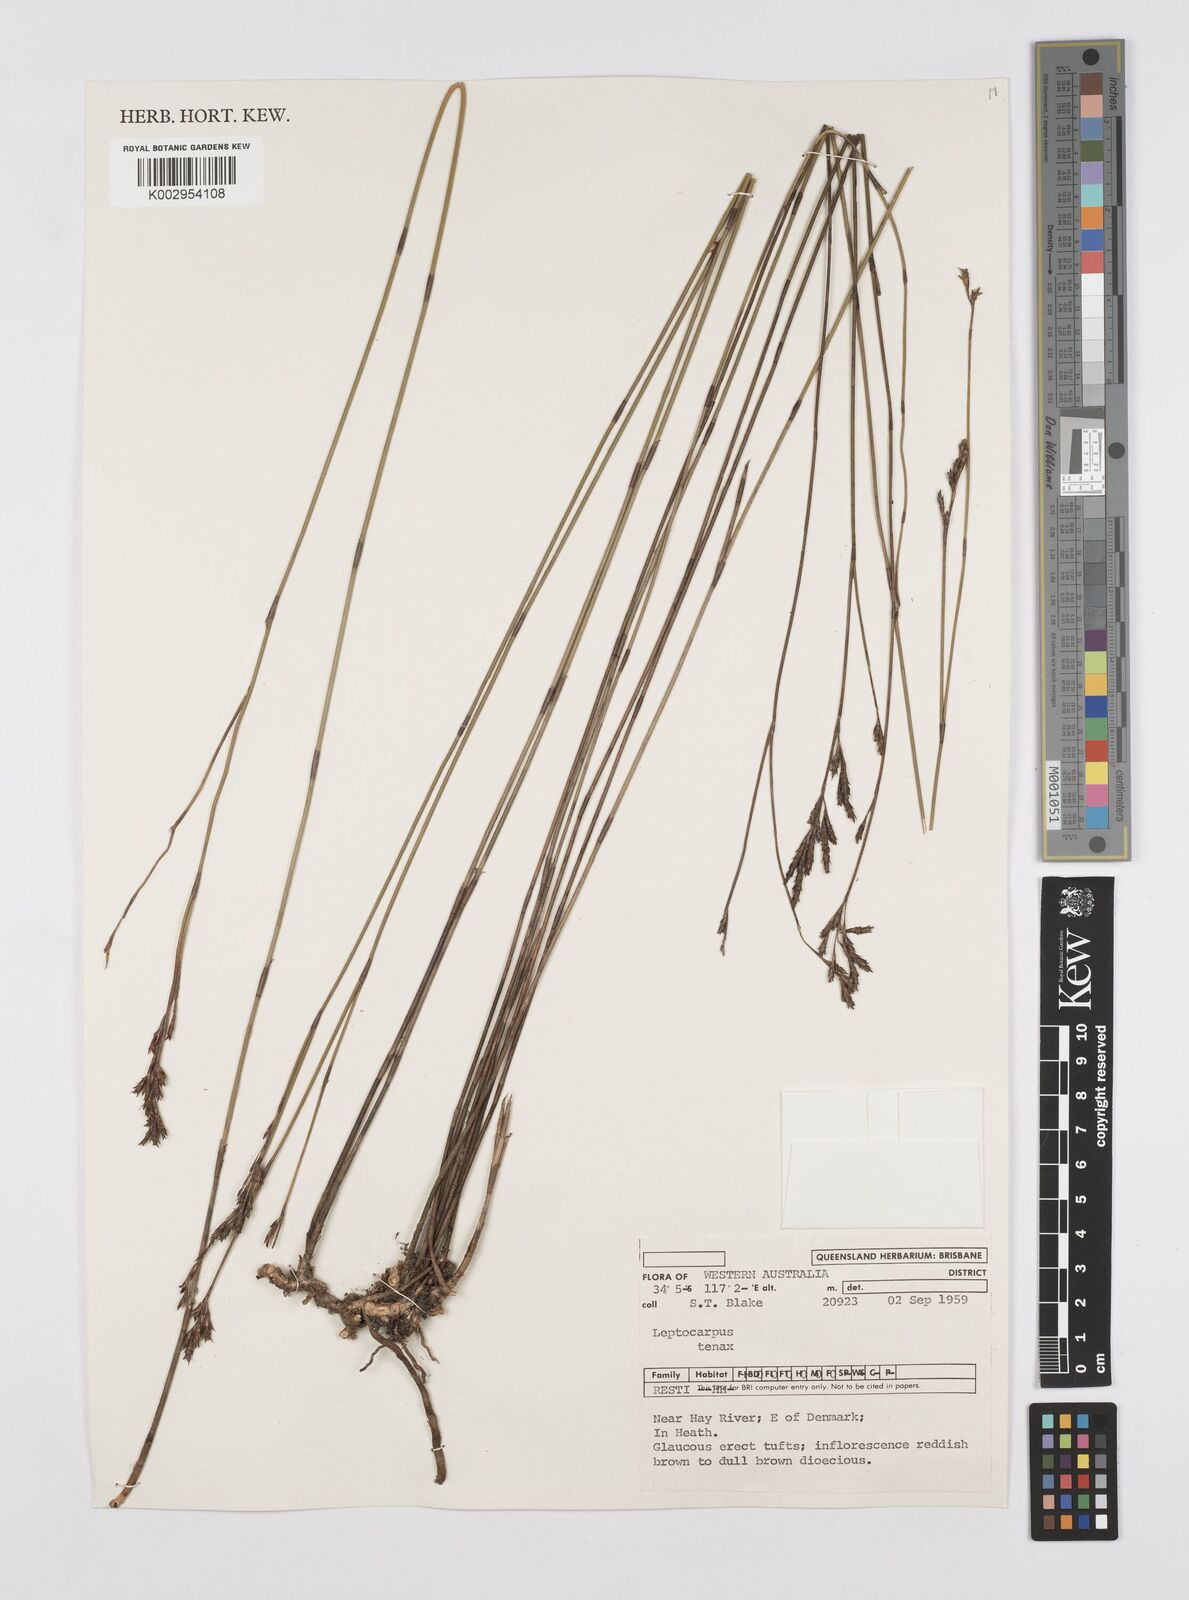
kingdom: Plantae
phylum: Tracheophyta
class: Liliopsida
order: Poales
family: Restionaceae
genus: Leptocarpus
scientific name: Leptocarpus tenax
